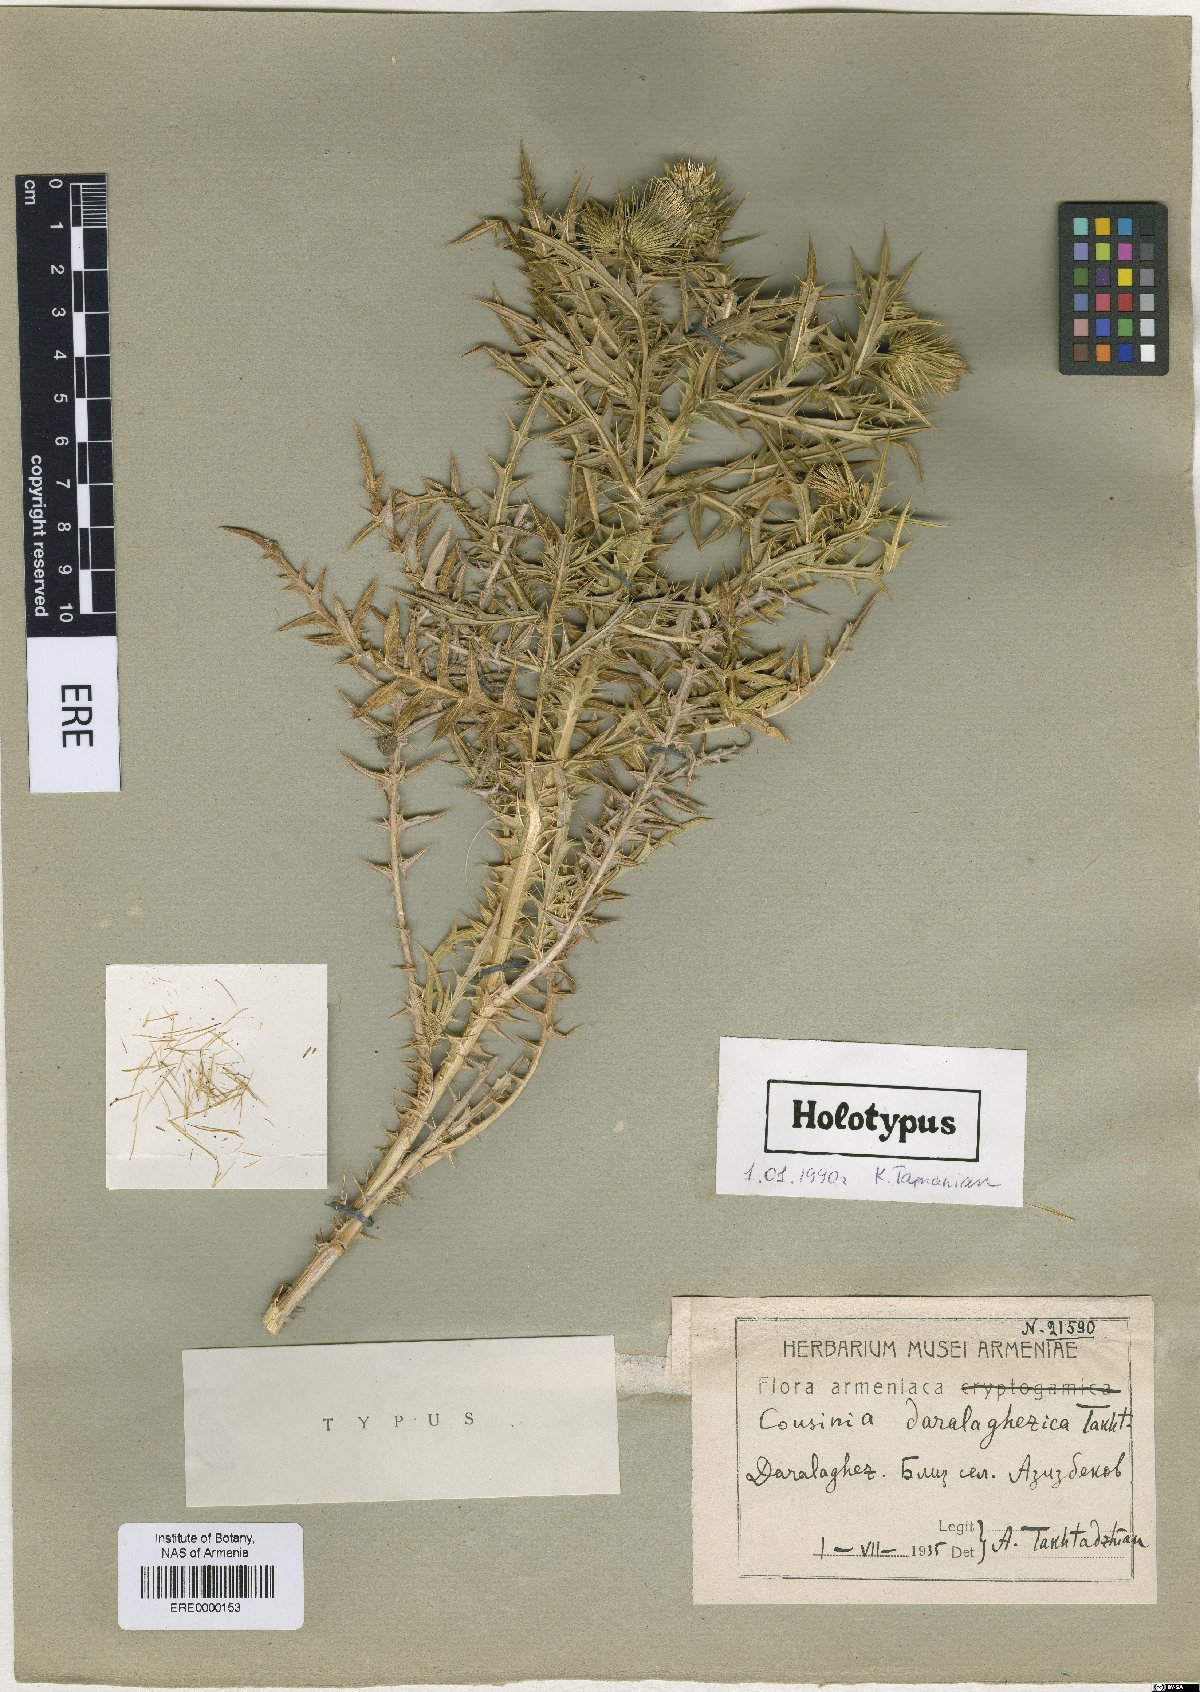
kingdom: Plantae
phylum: Tracheophyta
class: Magnoliopsida
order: Asterales
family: Asteraceae
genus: Cousinia
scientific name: Cousinia daralaghezica
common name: Daralaghesian cousinia
